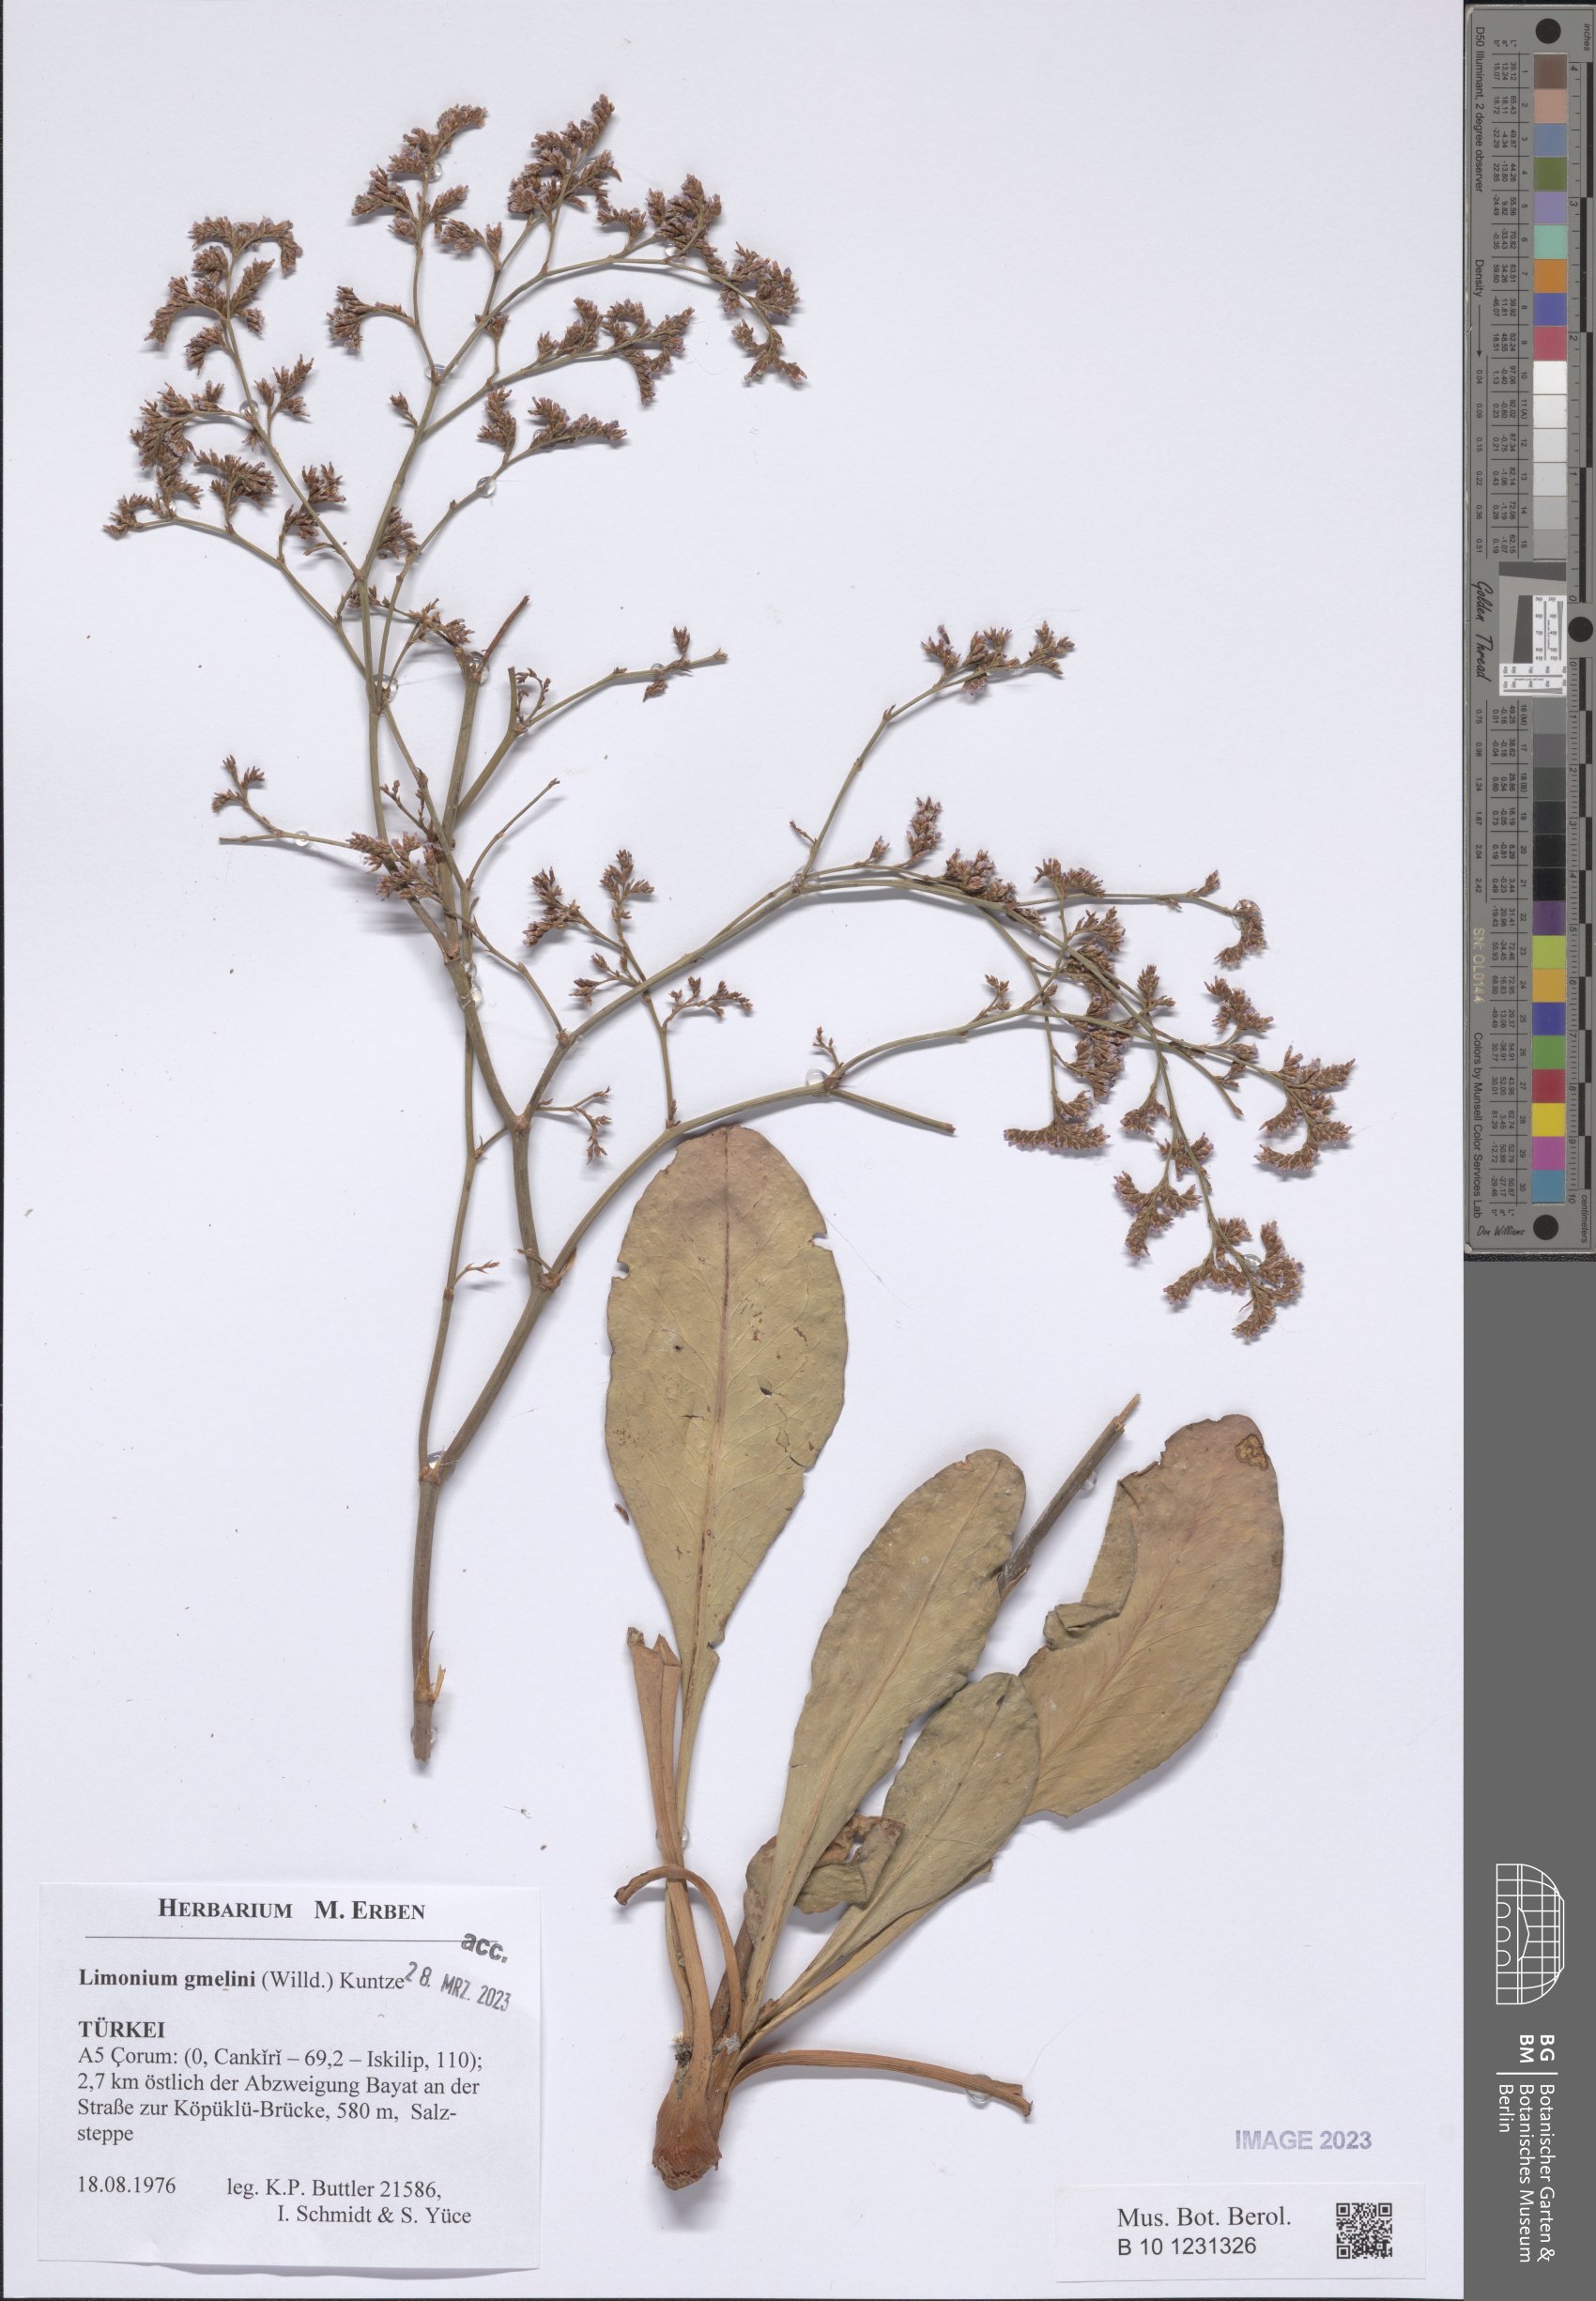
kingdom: Plantae
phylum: Tracheophyta
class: Magnoliopsida
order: Caryophyllales
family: Plumbaginaceae
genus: Limonium
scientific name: Limonium gmelini
